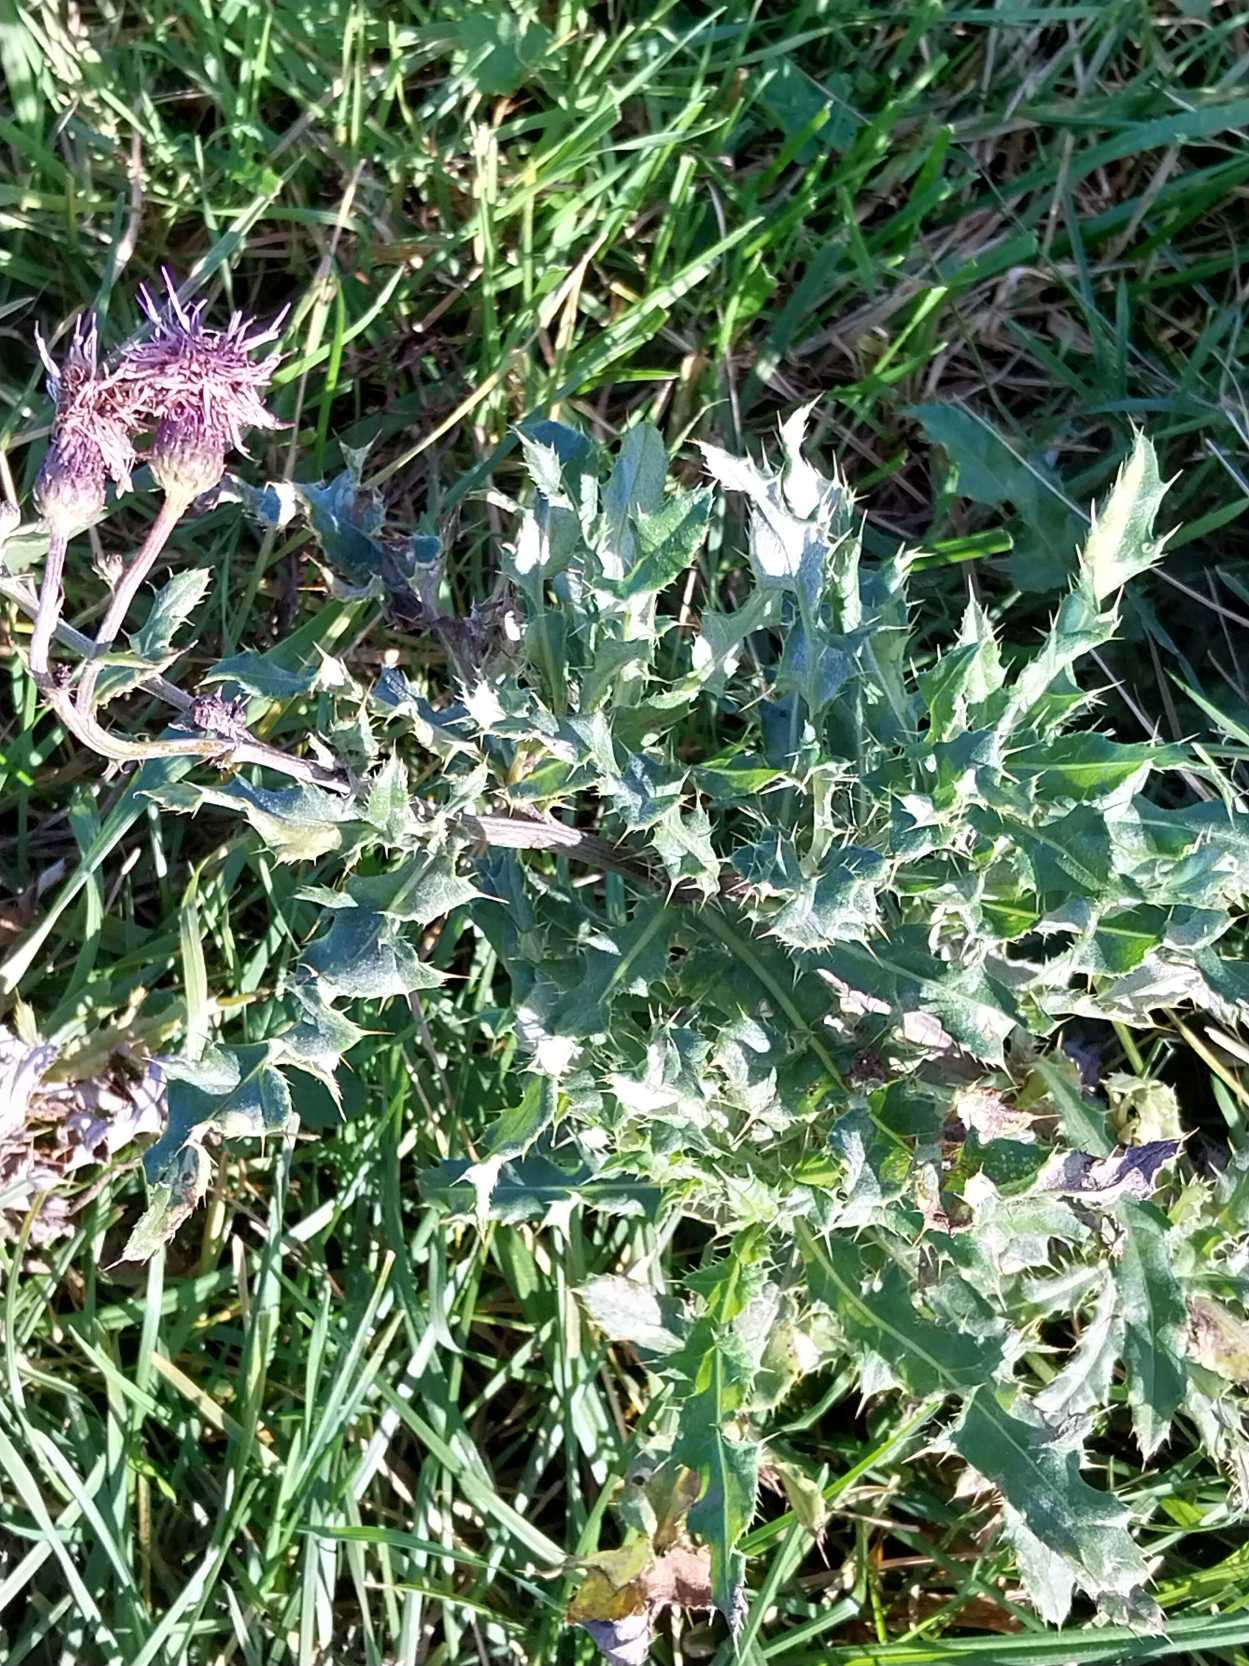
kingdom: Plantae
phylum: Tracheophyta
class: Magnoliopsida
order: Asterales
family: Asteraceae
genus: Cirsium
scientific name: Cirsium arvense
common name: Ager-tidsel
